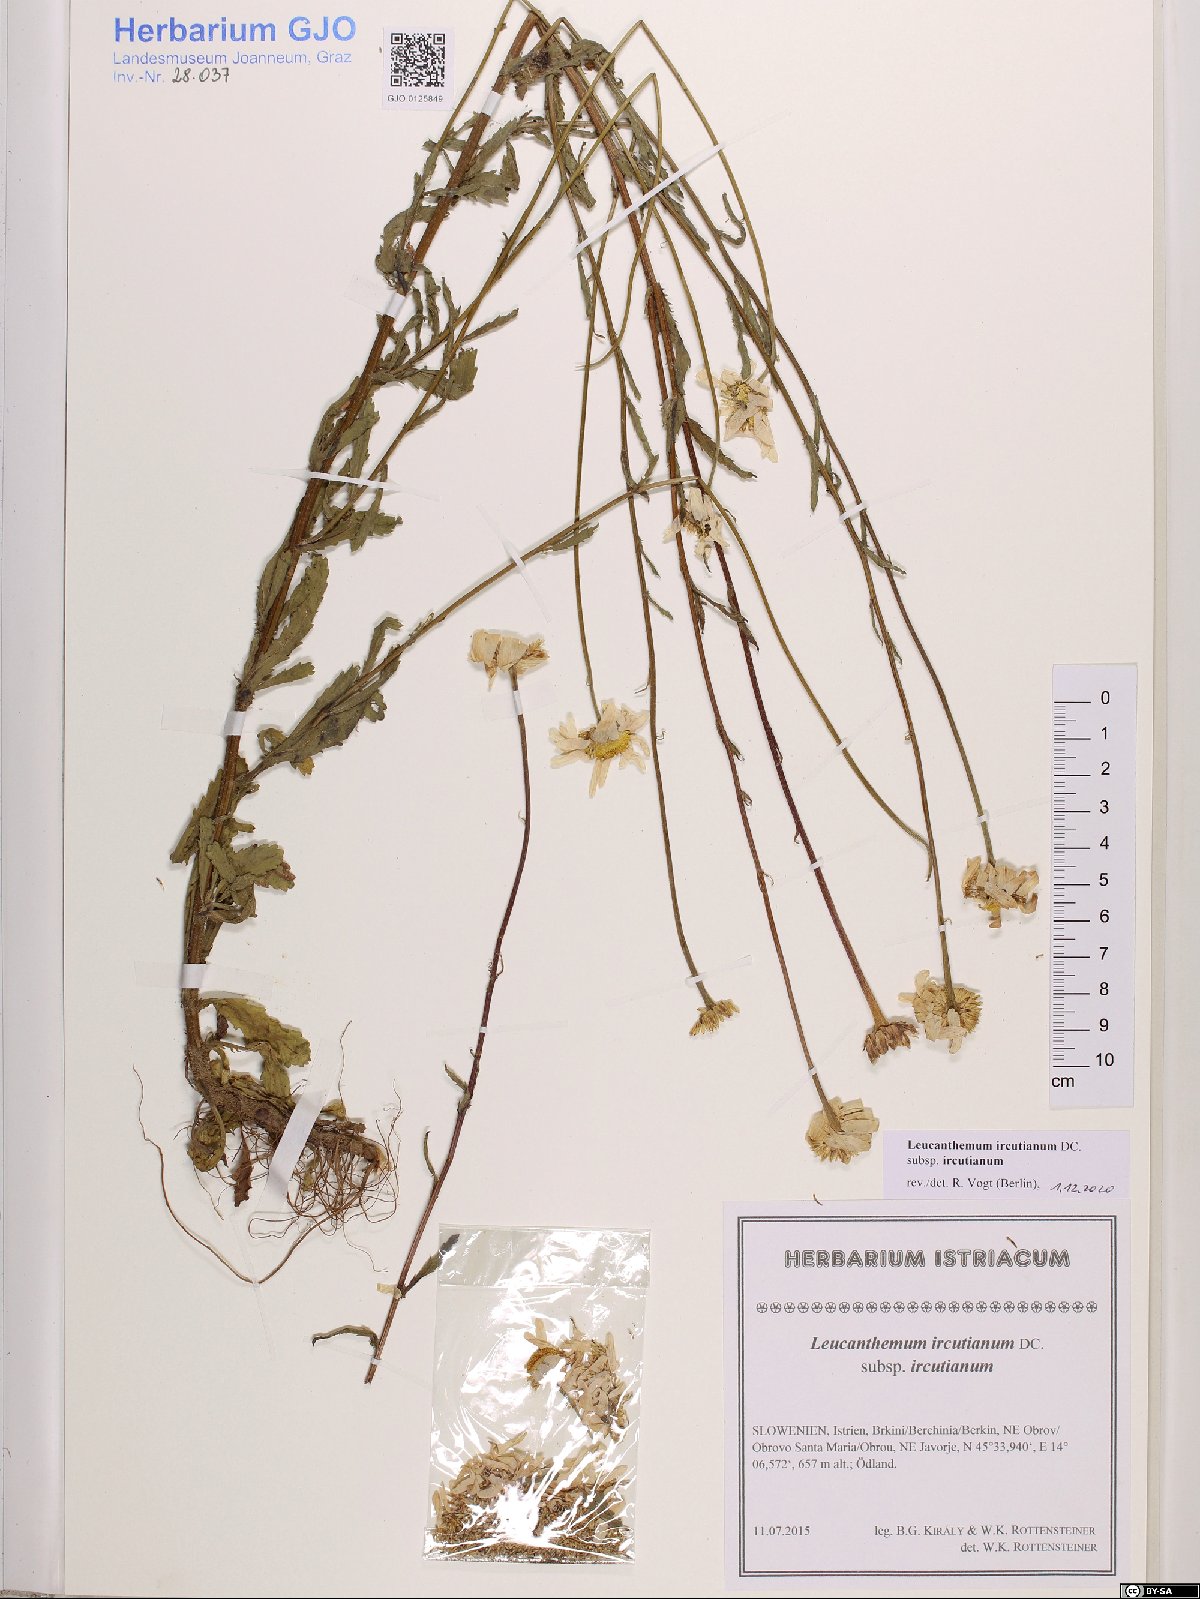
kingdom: Plantae
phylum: Tracheophyta
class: Magnoliopsida
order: Asterales
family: Asteraceae
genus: Leucanthemum
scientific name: Leucanthemum ircutianum
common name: Daisy
